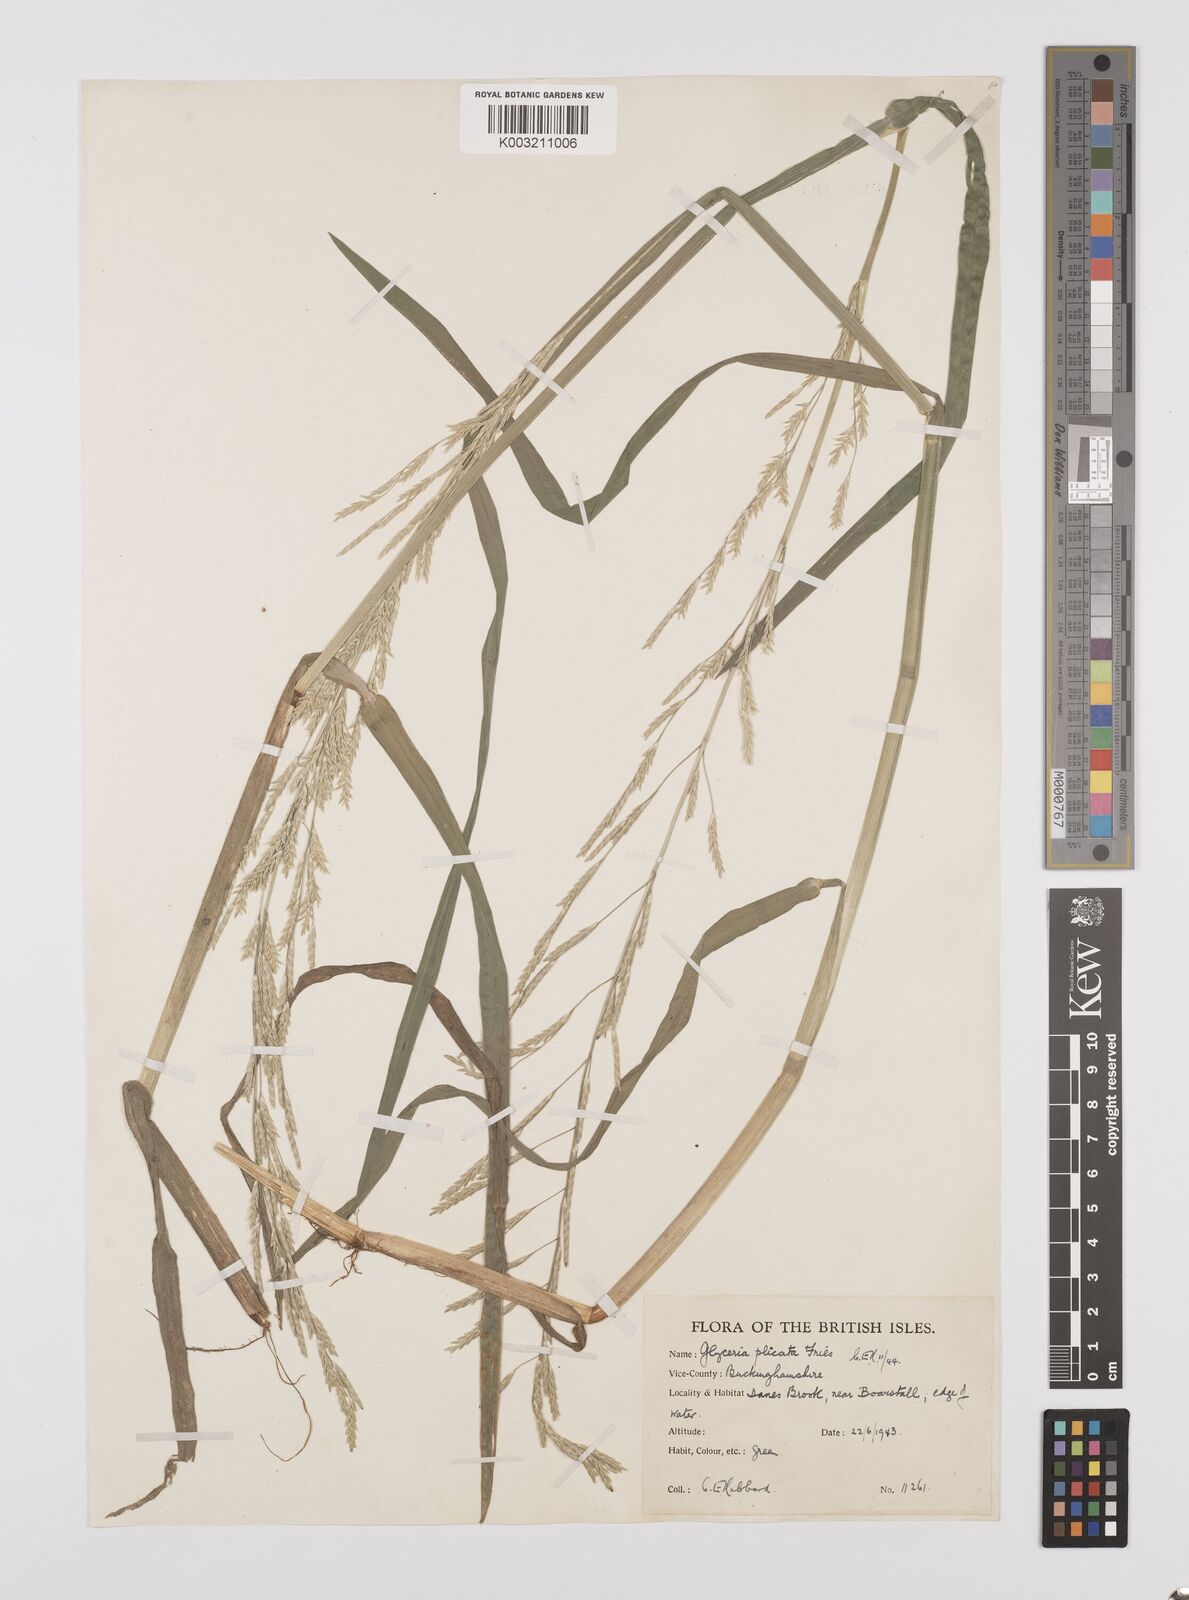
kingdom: Plantae
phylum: Tracheophyta
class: Liliopsida
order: Poales
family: Poaceae
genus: Glyceria
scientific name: Glyceria notata
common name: Plicate sweet-grass
